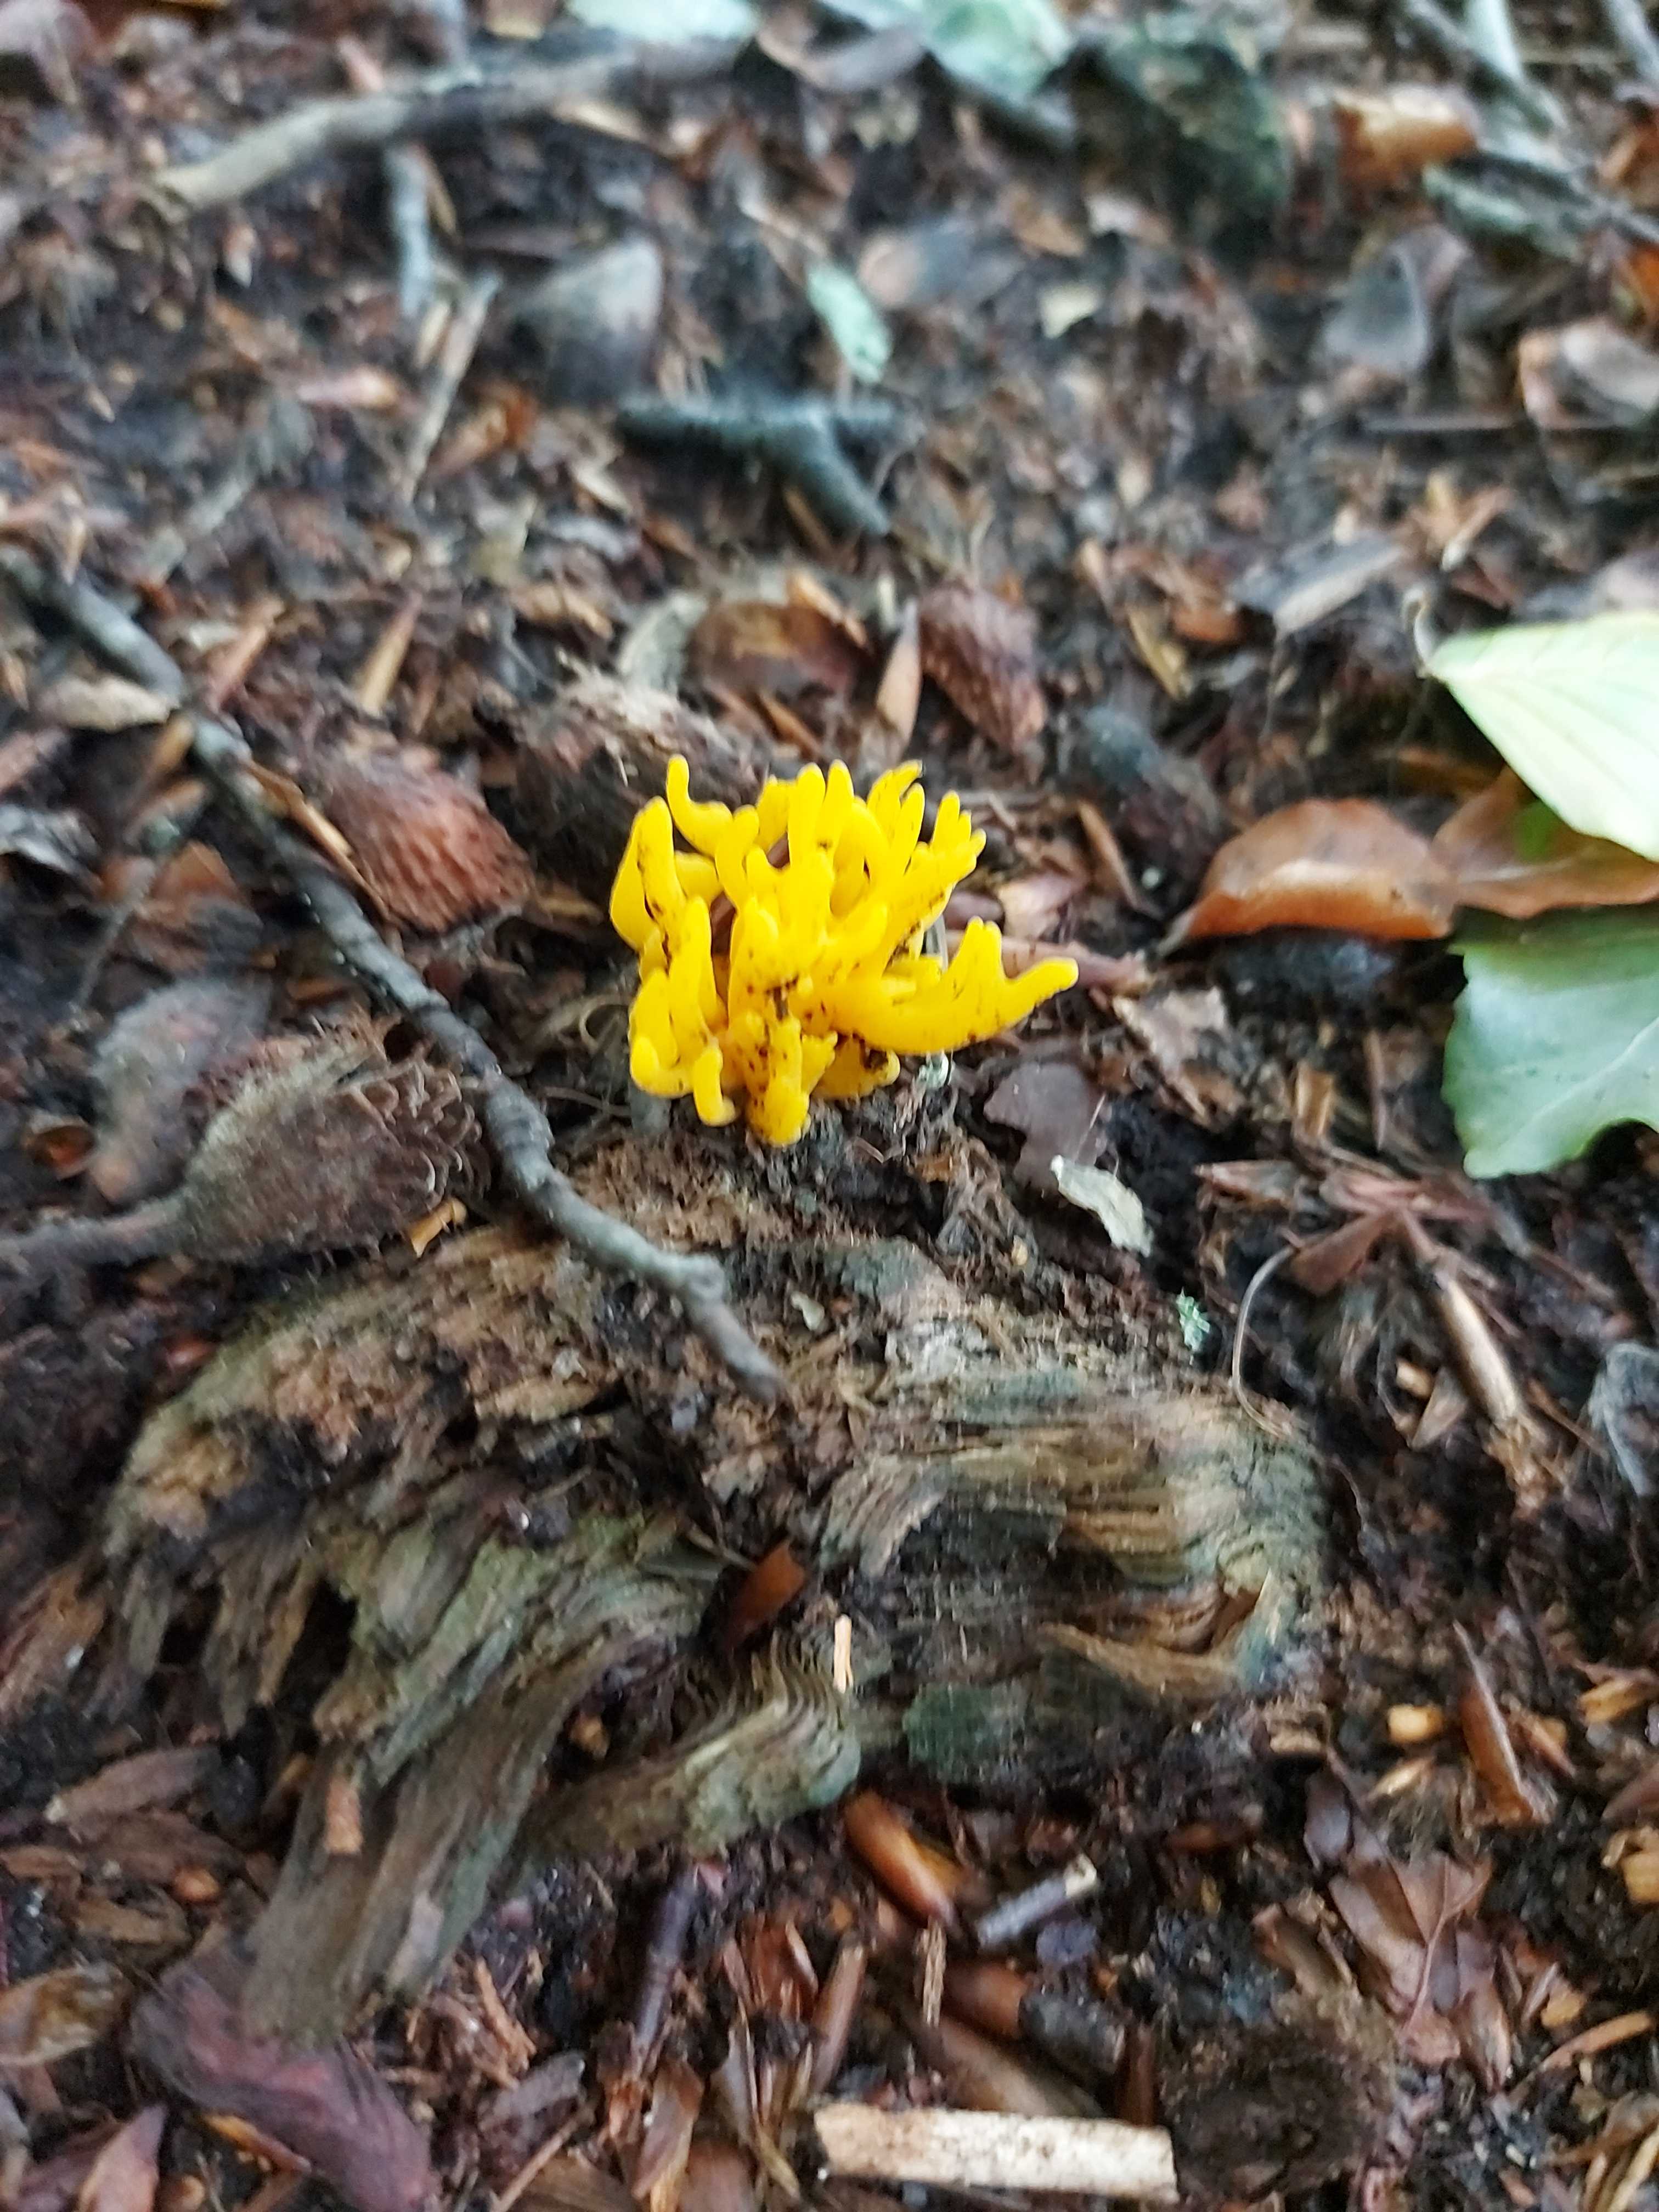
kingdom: Fungi
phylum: Basidiomycota
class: Dacrymycetes
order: Dacrymycetales
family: Dacrymycetaceae
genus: Calocera
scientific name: Calocera viscosa
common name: almindelig guldgaffel
